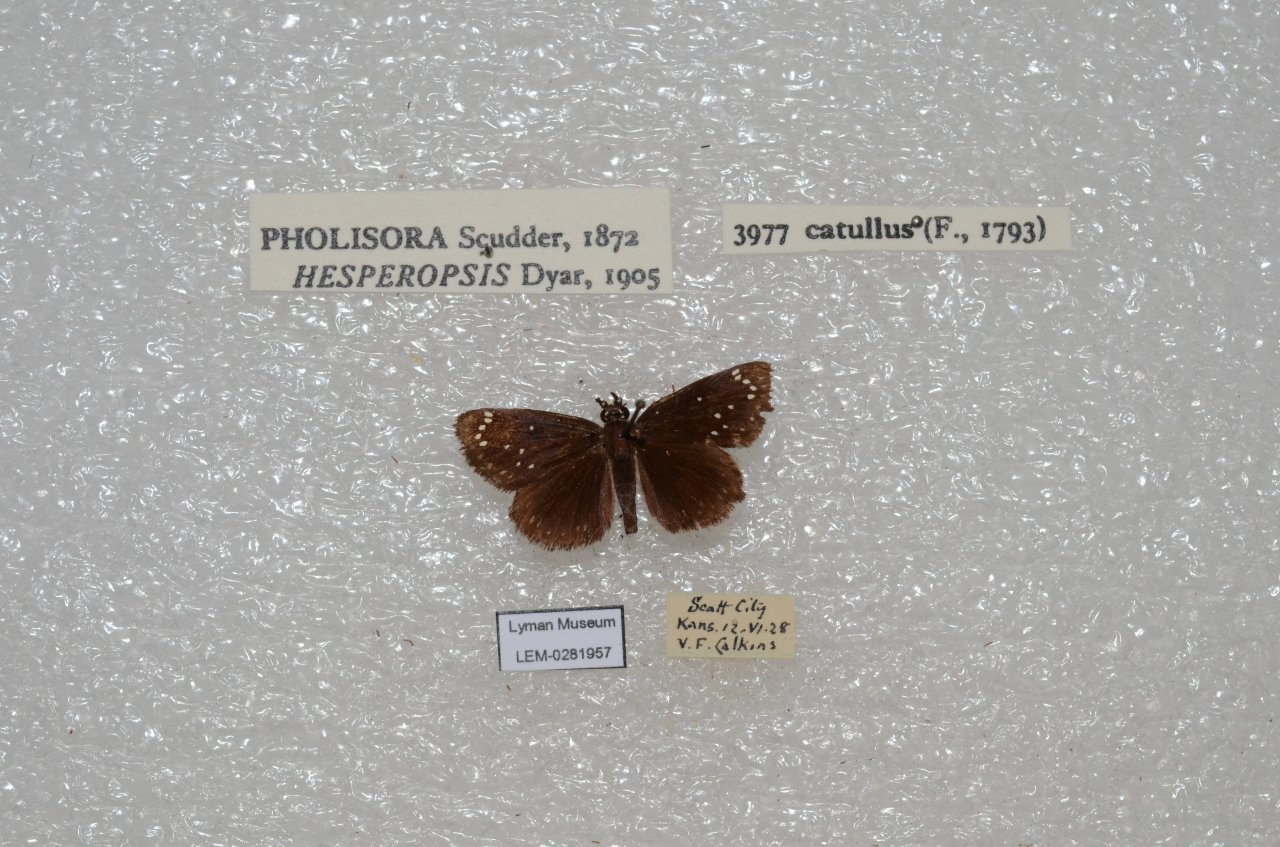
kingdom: Animalia
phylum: Arthropoda
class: Insecta
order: Lepidoptera
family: Hesperiidae
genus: Pholisora
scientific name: Pholisora catullus
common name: Common Sootywing
